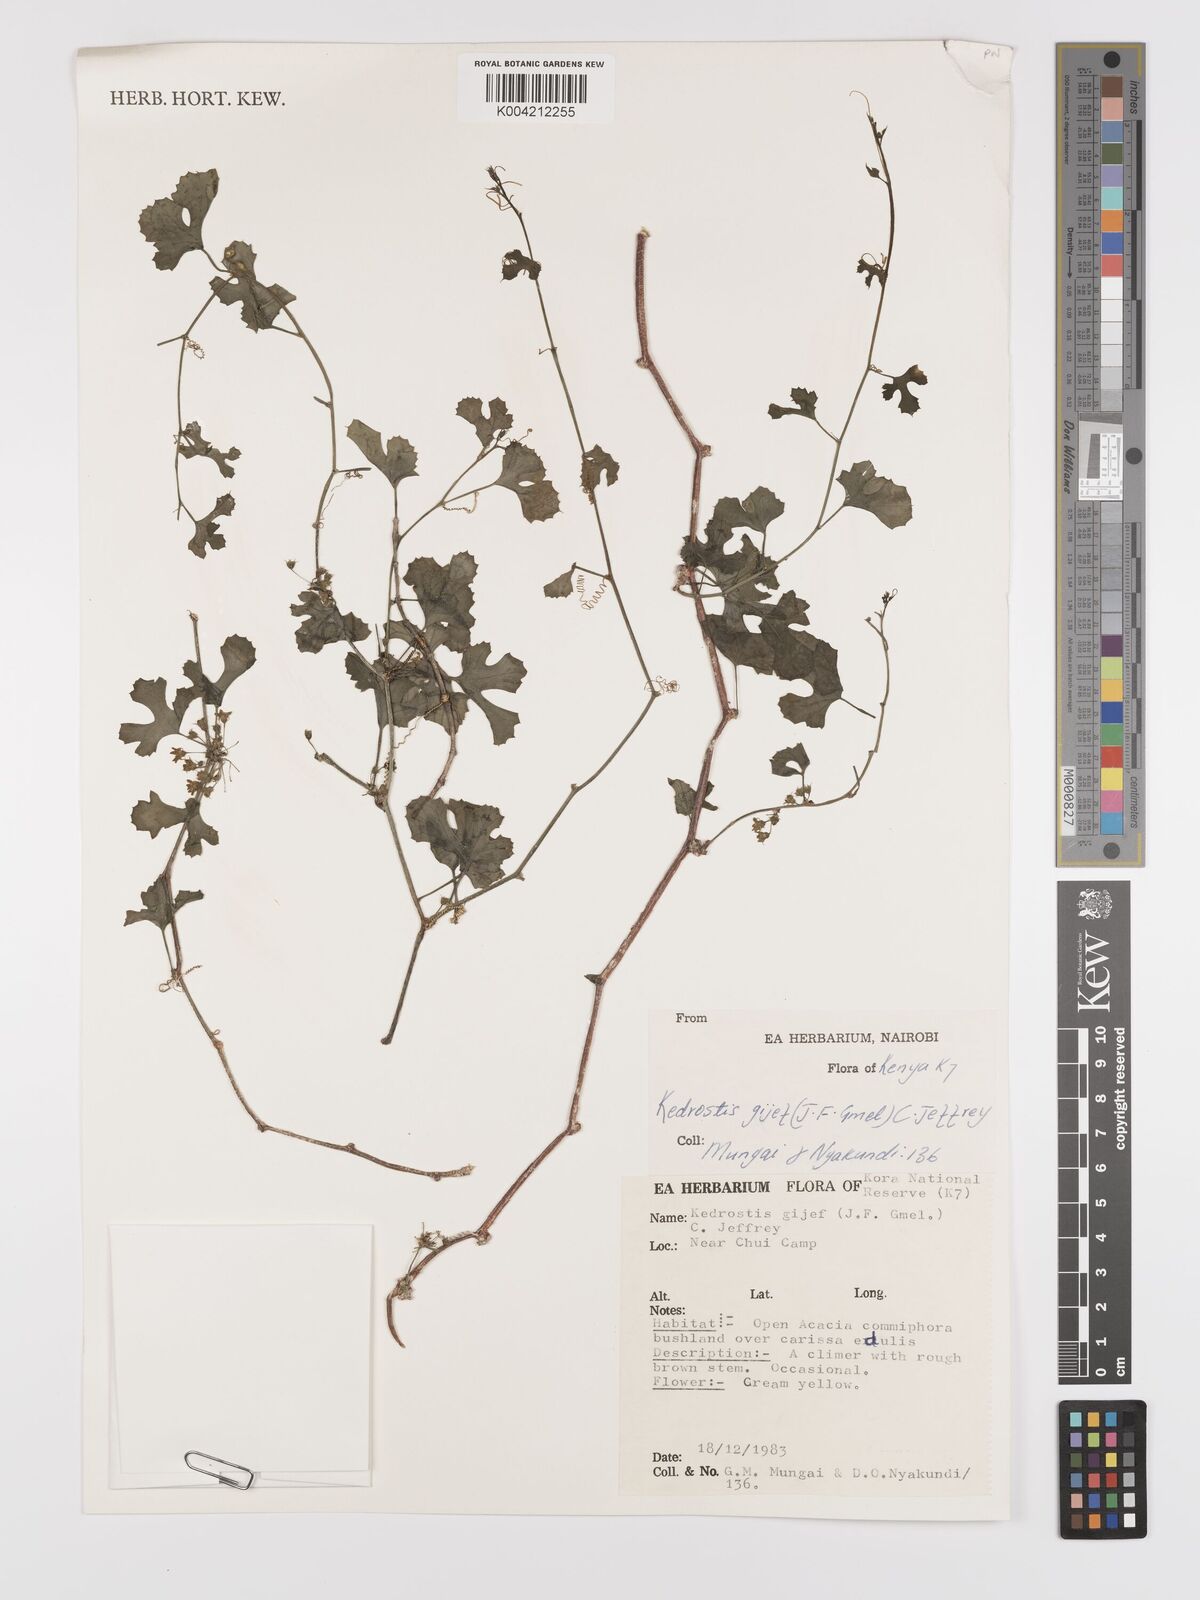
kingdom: Plantae
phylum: Tracheophyta
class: Magnoliopsida
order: Cucurbitales
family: Cucurbitaceae
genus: Kedrostis
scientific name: Kedrostis gijef
